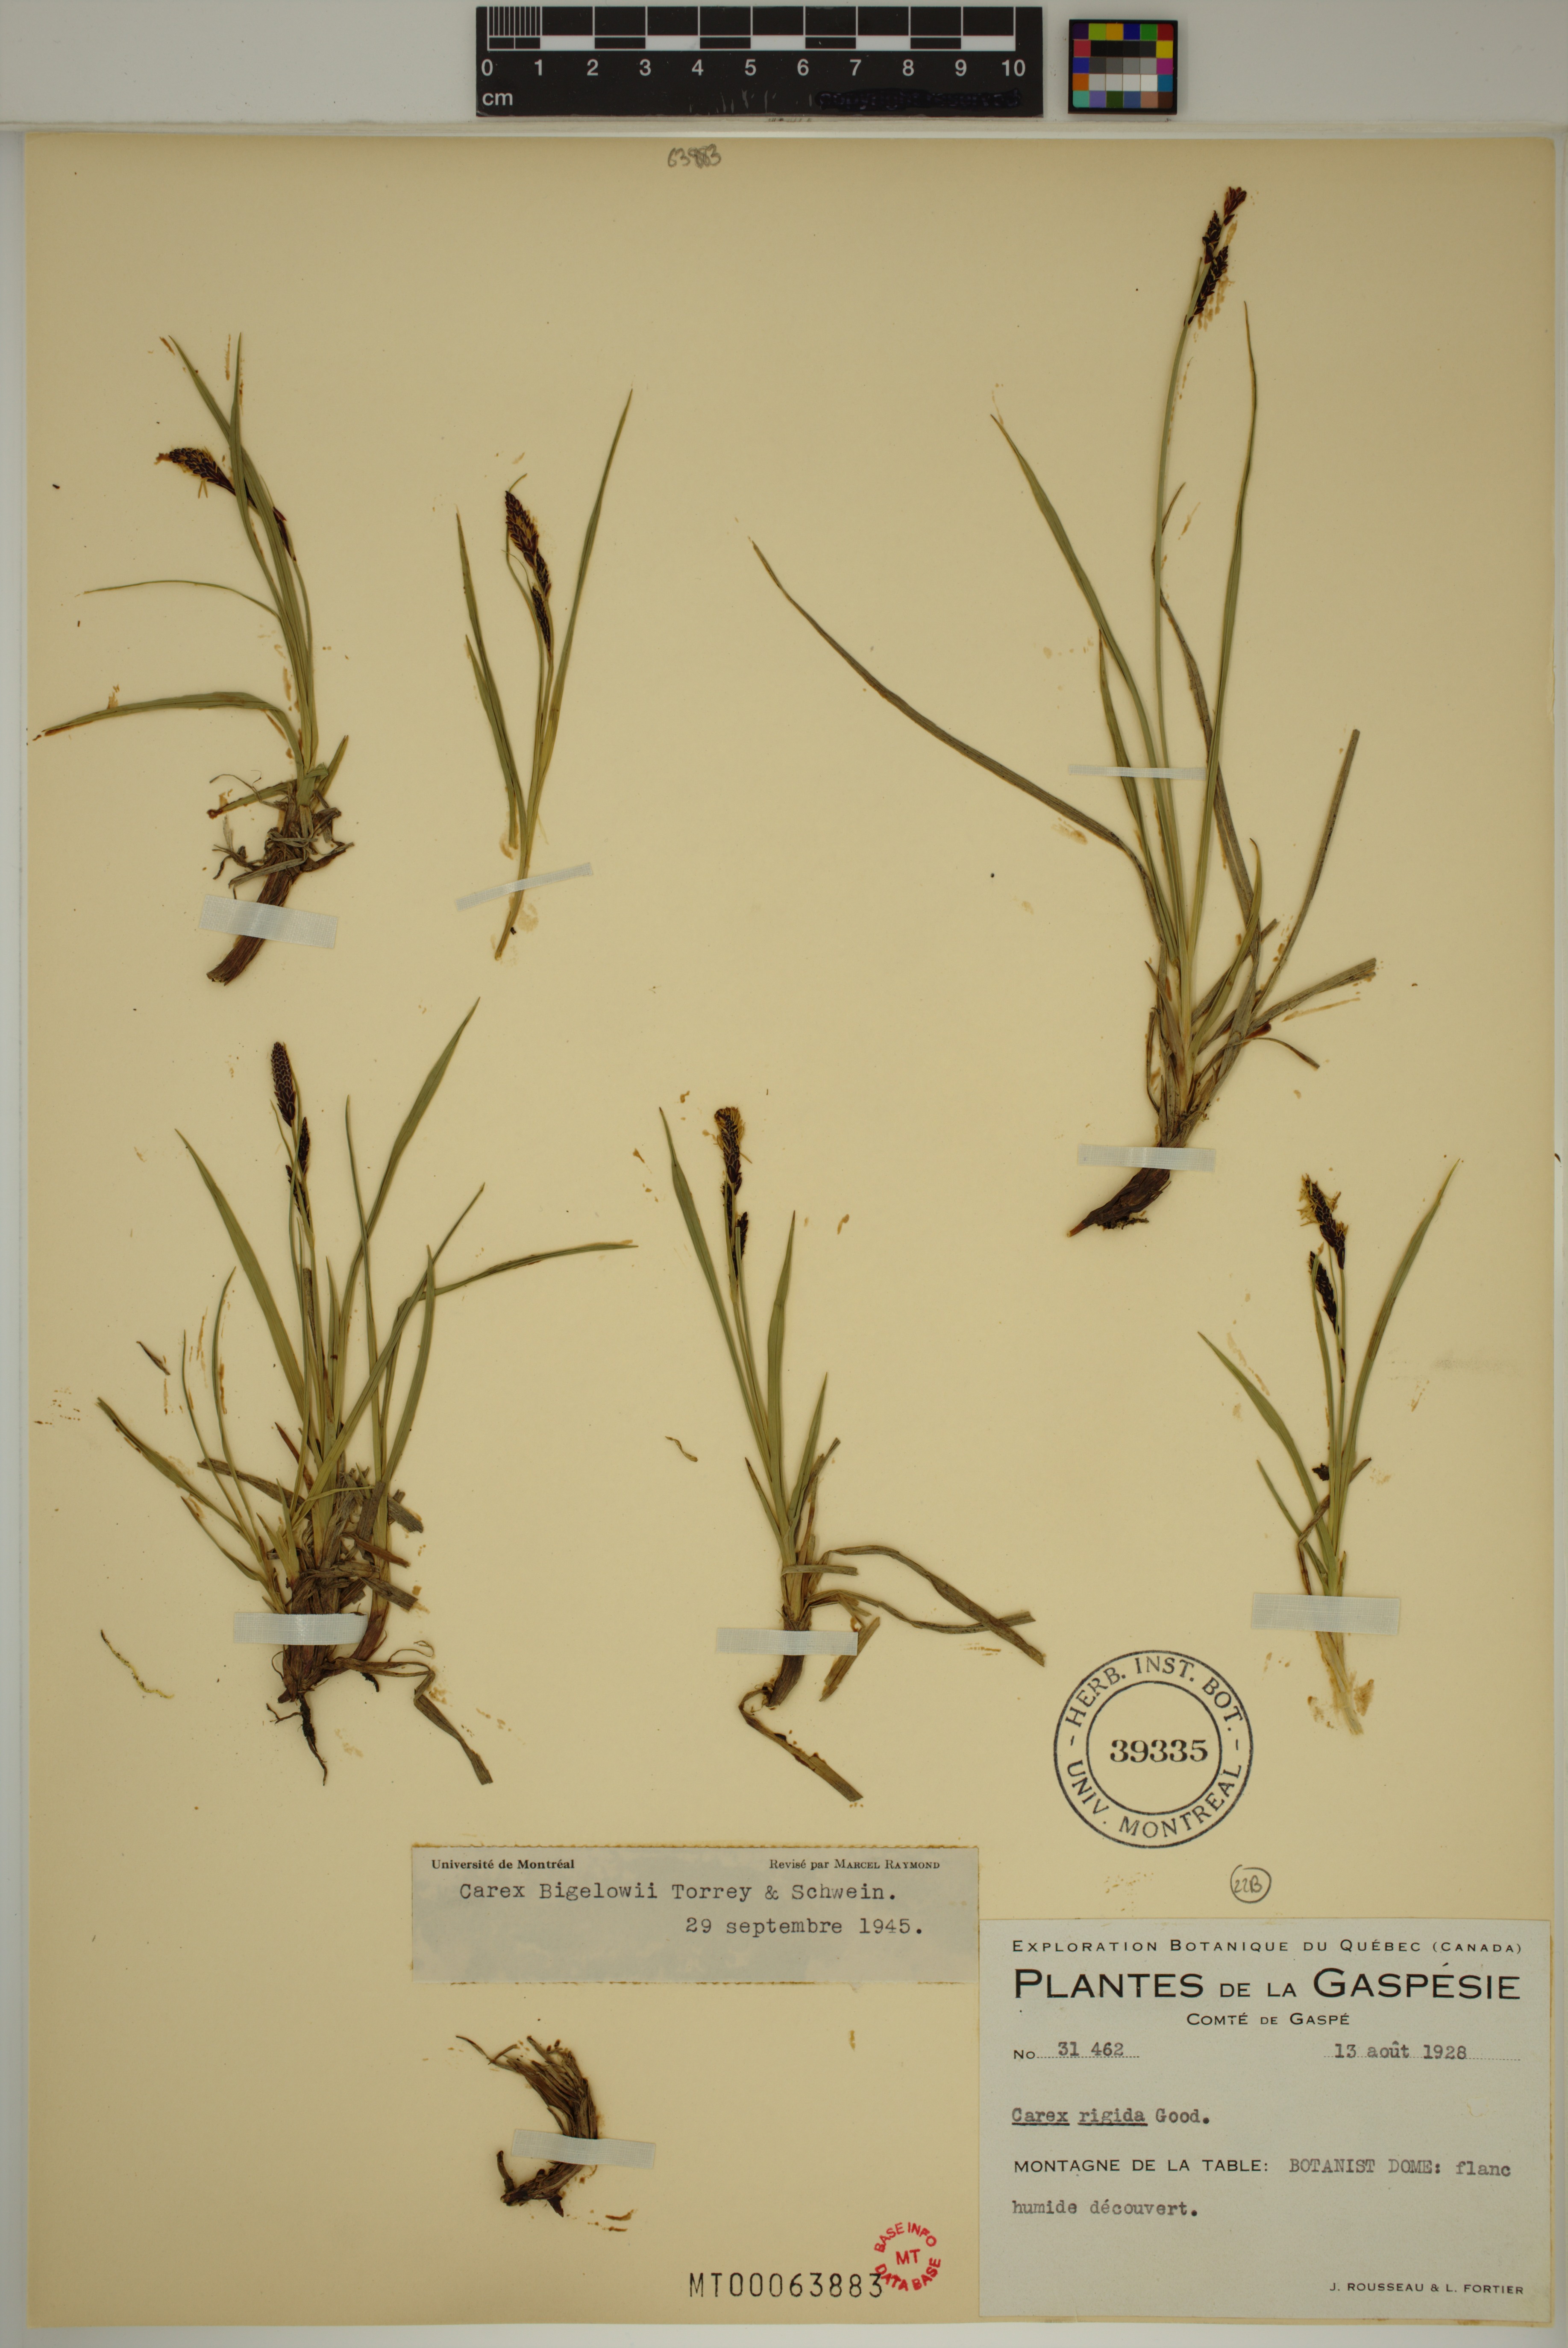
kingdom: Plantae
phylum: Tracheophyta
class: Liliopsida
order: Poales
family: Cyperaceae
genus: Carex
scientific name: Carex bigelowii
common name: Stiff sedge
